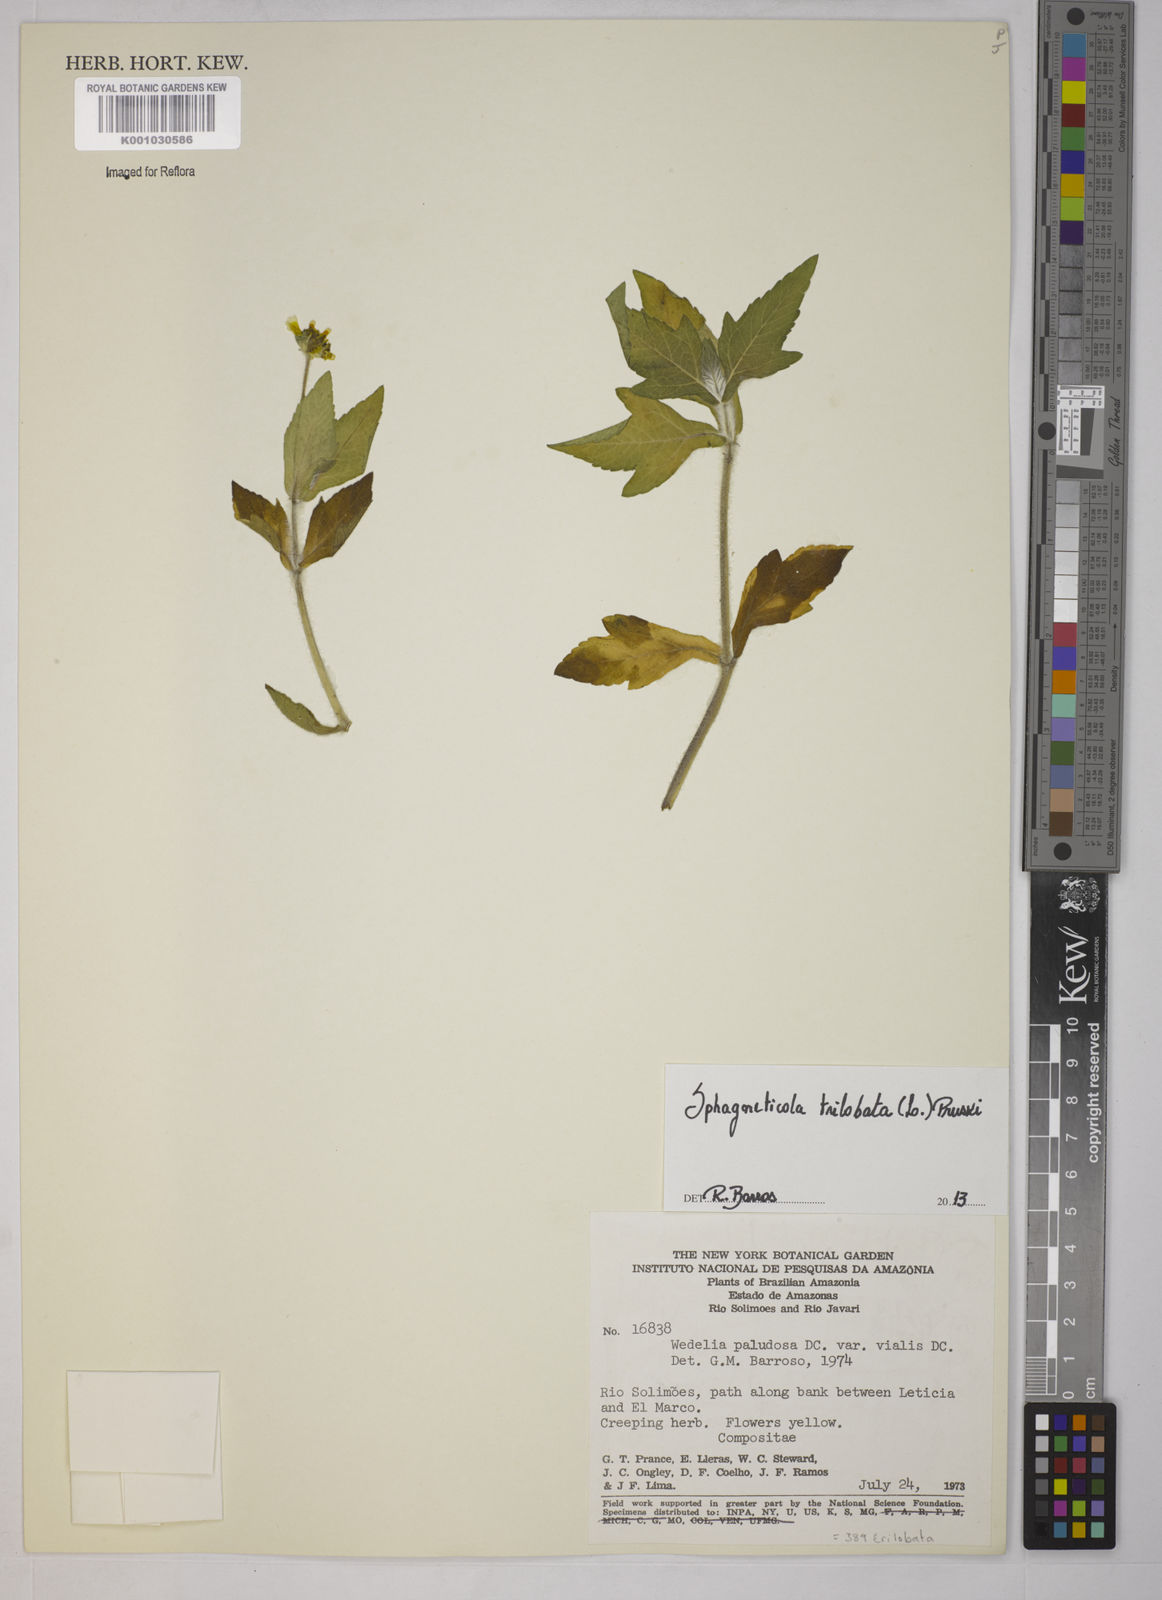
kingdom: Plantae
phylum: Tracheophyta
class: Magnoliopsida
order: Asterales
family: Asteraceae
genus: Sphagneticola
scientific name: Sphagneticola trilobata
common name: Bay biscayne creeping-oxeye
